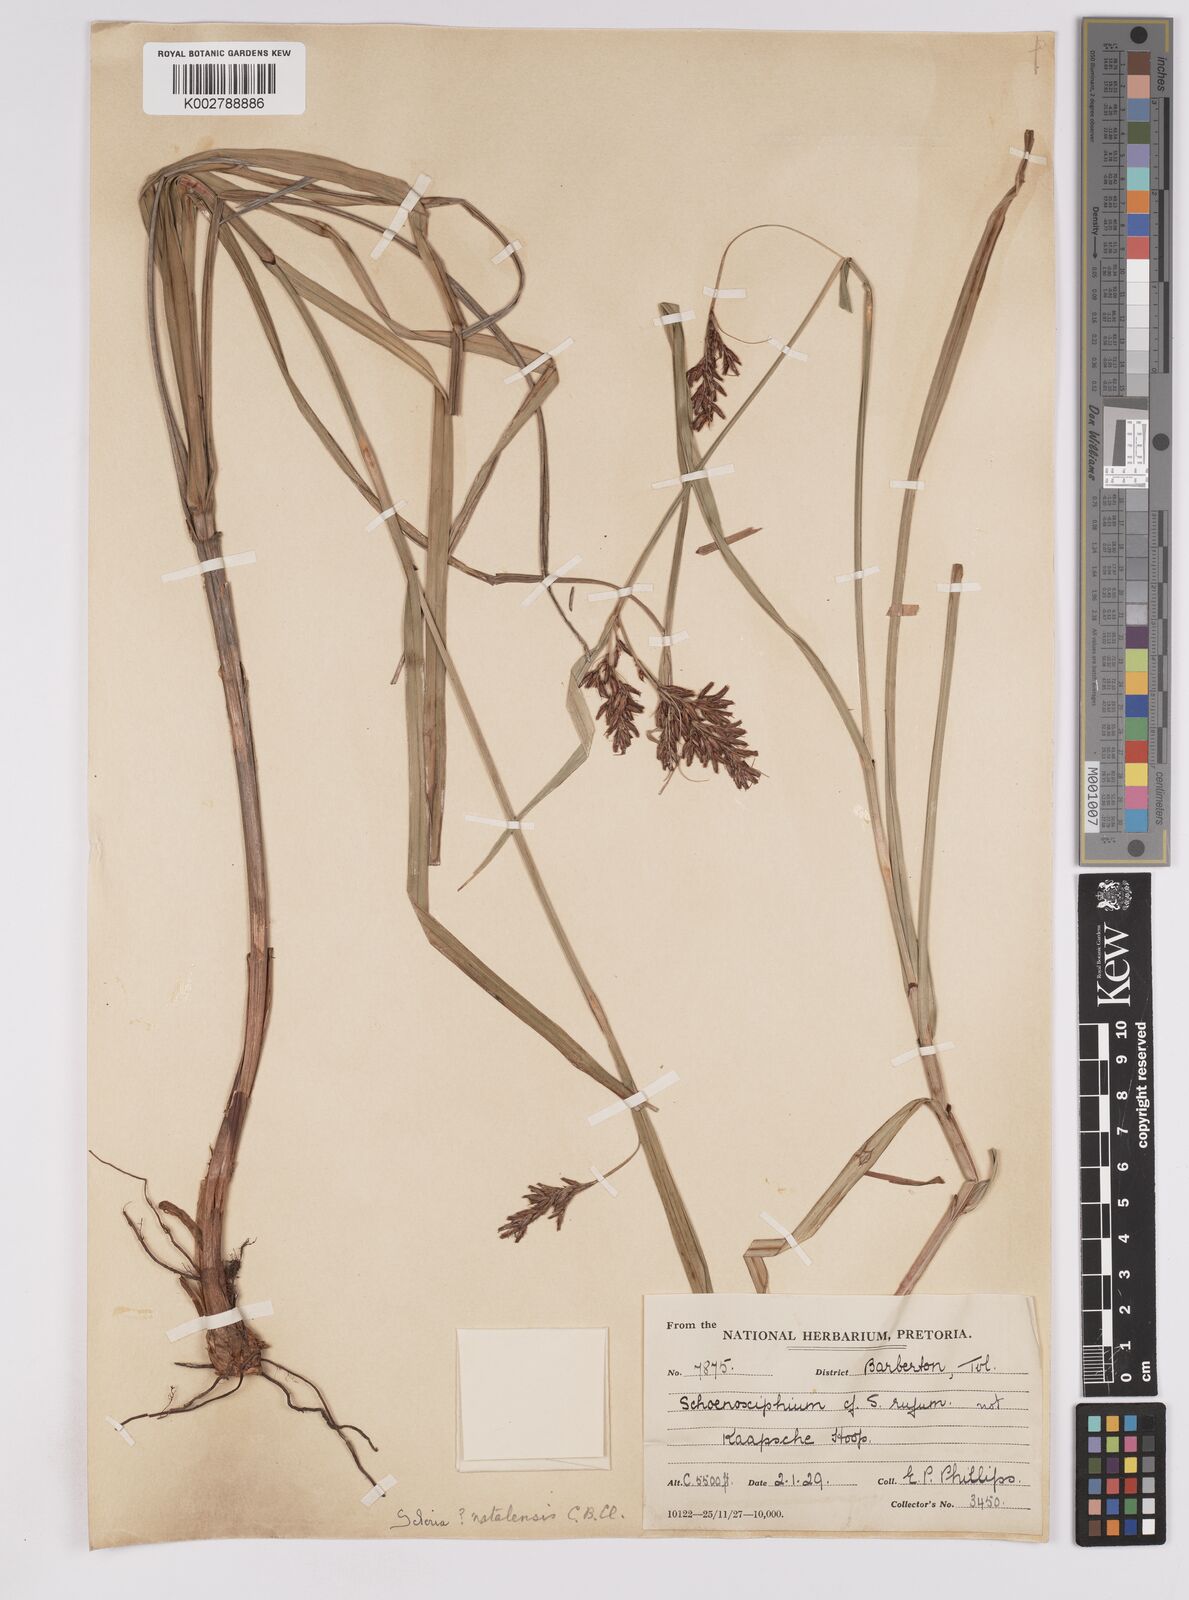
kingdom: Plantae
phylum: Tracheophyta
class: Liliopsida
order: Poales
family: Cyperaceae
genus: Scleria
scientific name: Scleria transvaalensis
